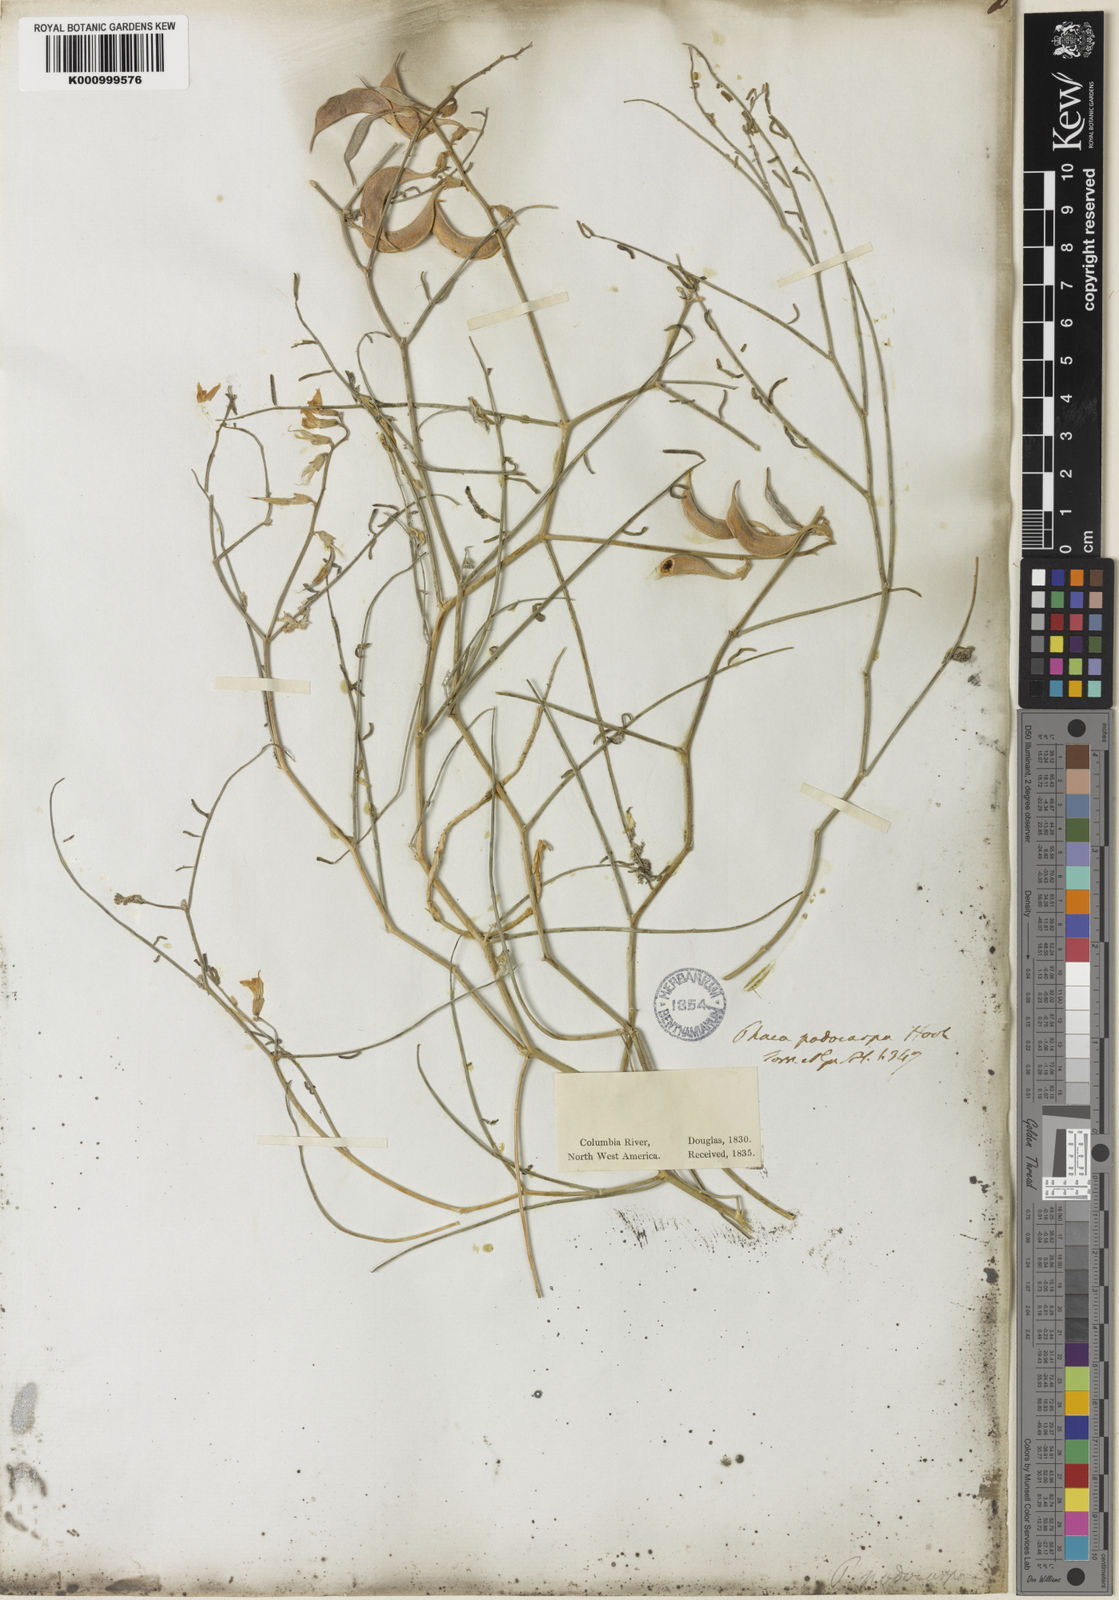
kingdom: Plantae
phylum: Tracheophyta
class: Magnoliopsida
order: Fabales
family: Fabaceae
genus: Astragalus
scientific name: Astragalus podocarpus
